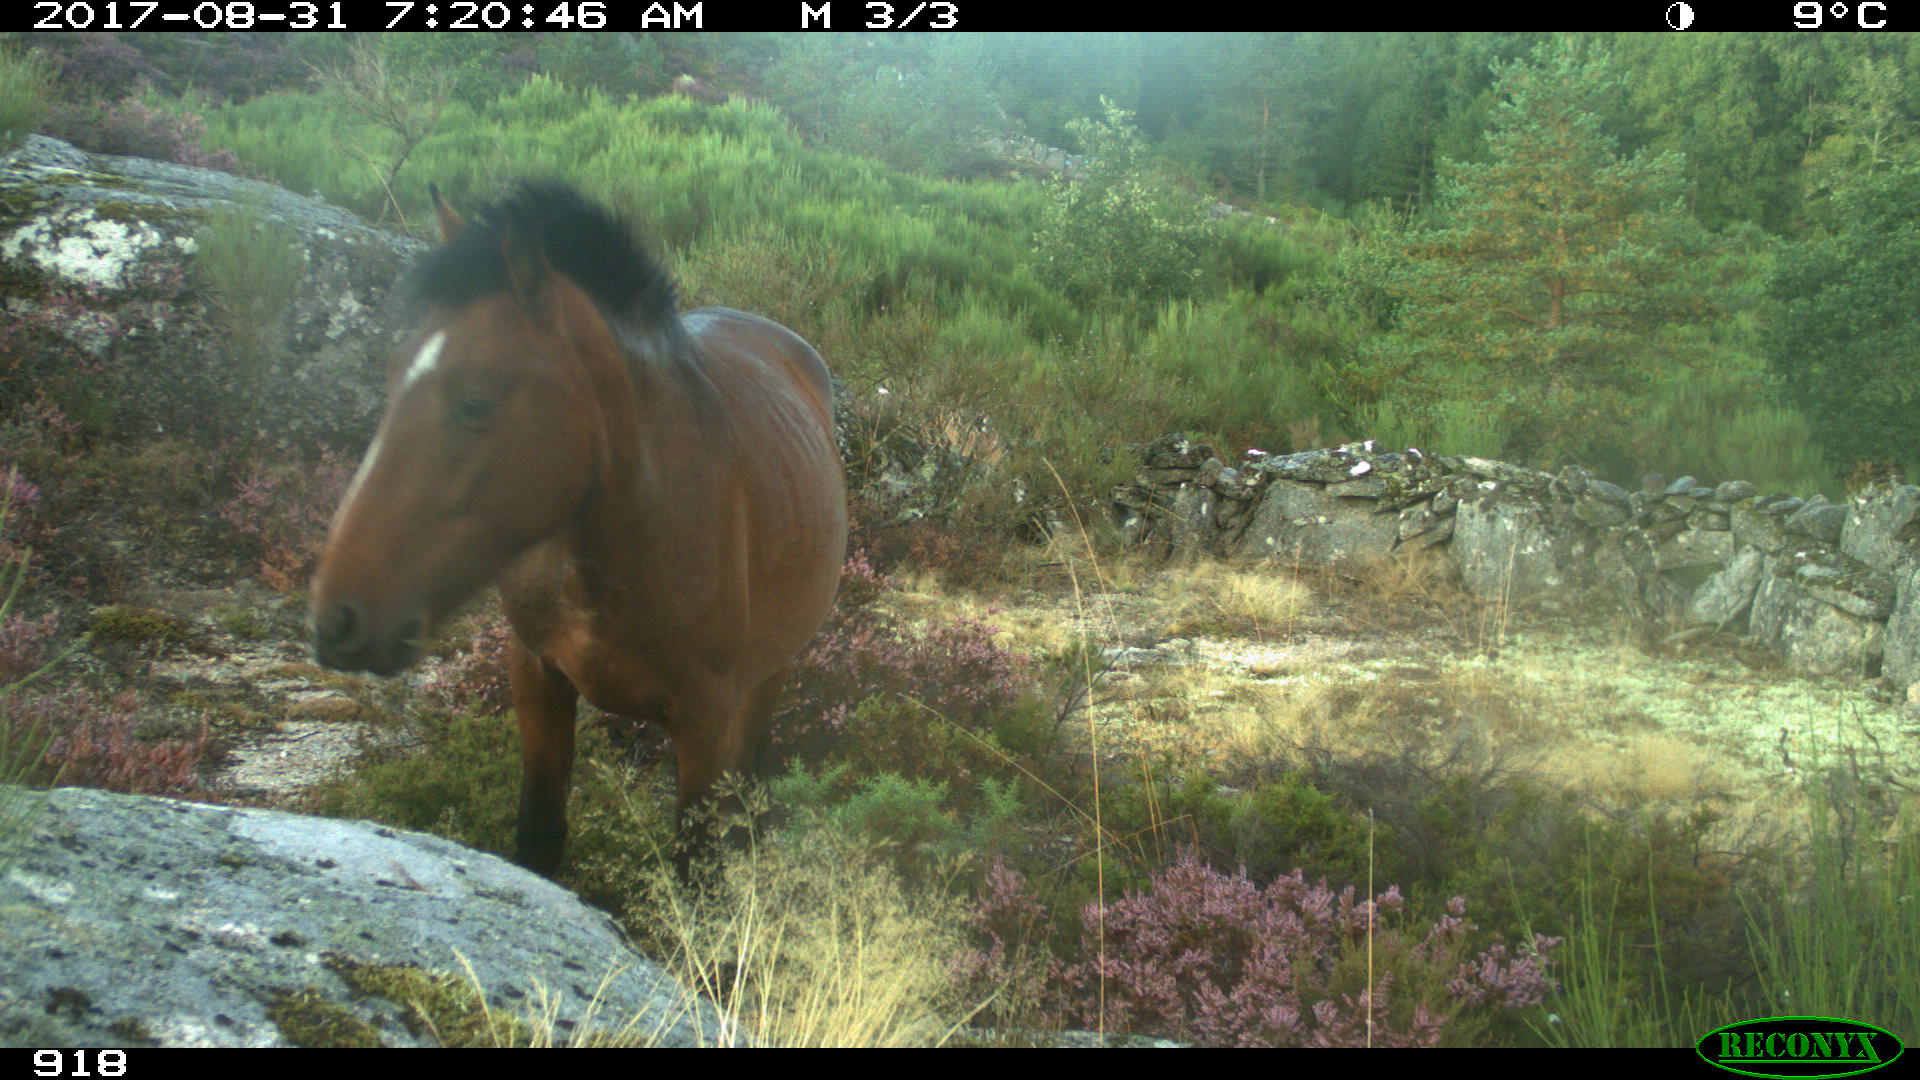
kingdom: Animalia
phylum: Chordata
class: Mammalia
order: Perissodactyla
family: Equidae
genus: Equus
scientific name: Equus caballus
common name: Horse
